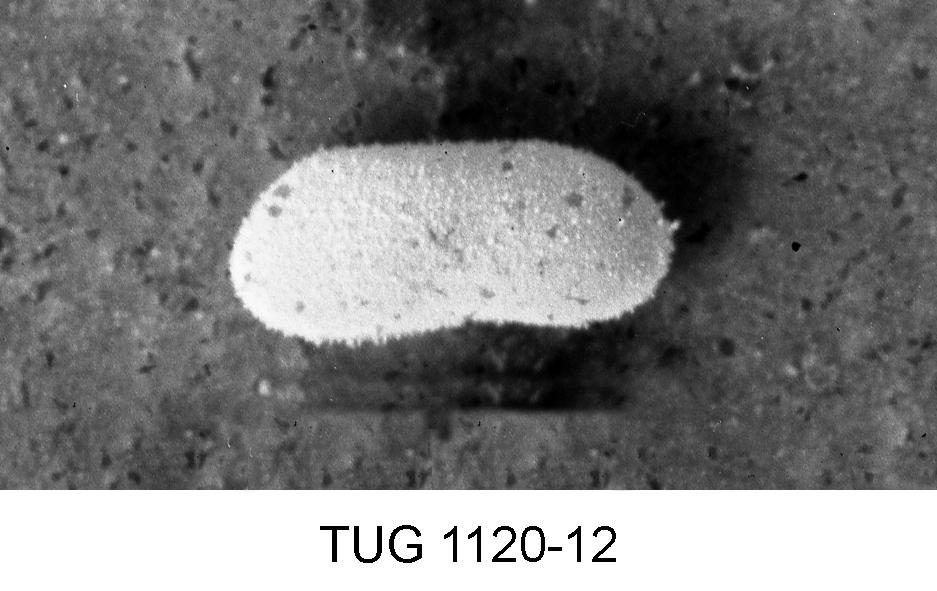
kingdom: Animalia
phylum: Arthropoda
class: Ostracoda
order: Podocopida
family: Bairdiidae
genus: Bairdia
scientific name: Bairdia
